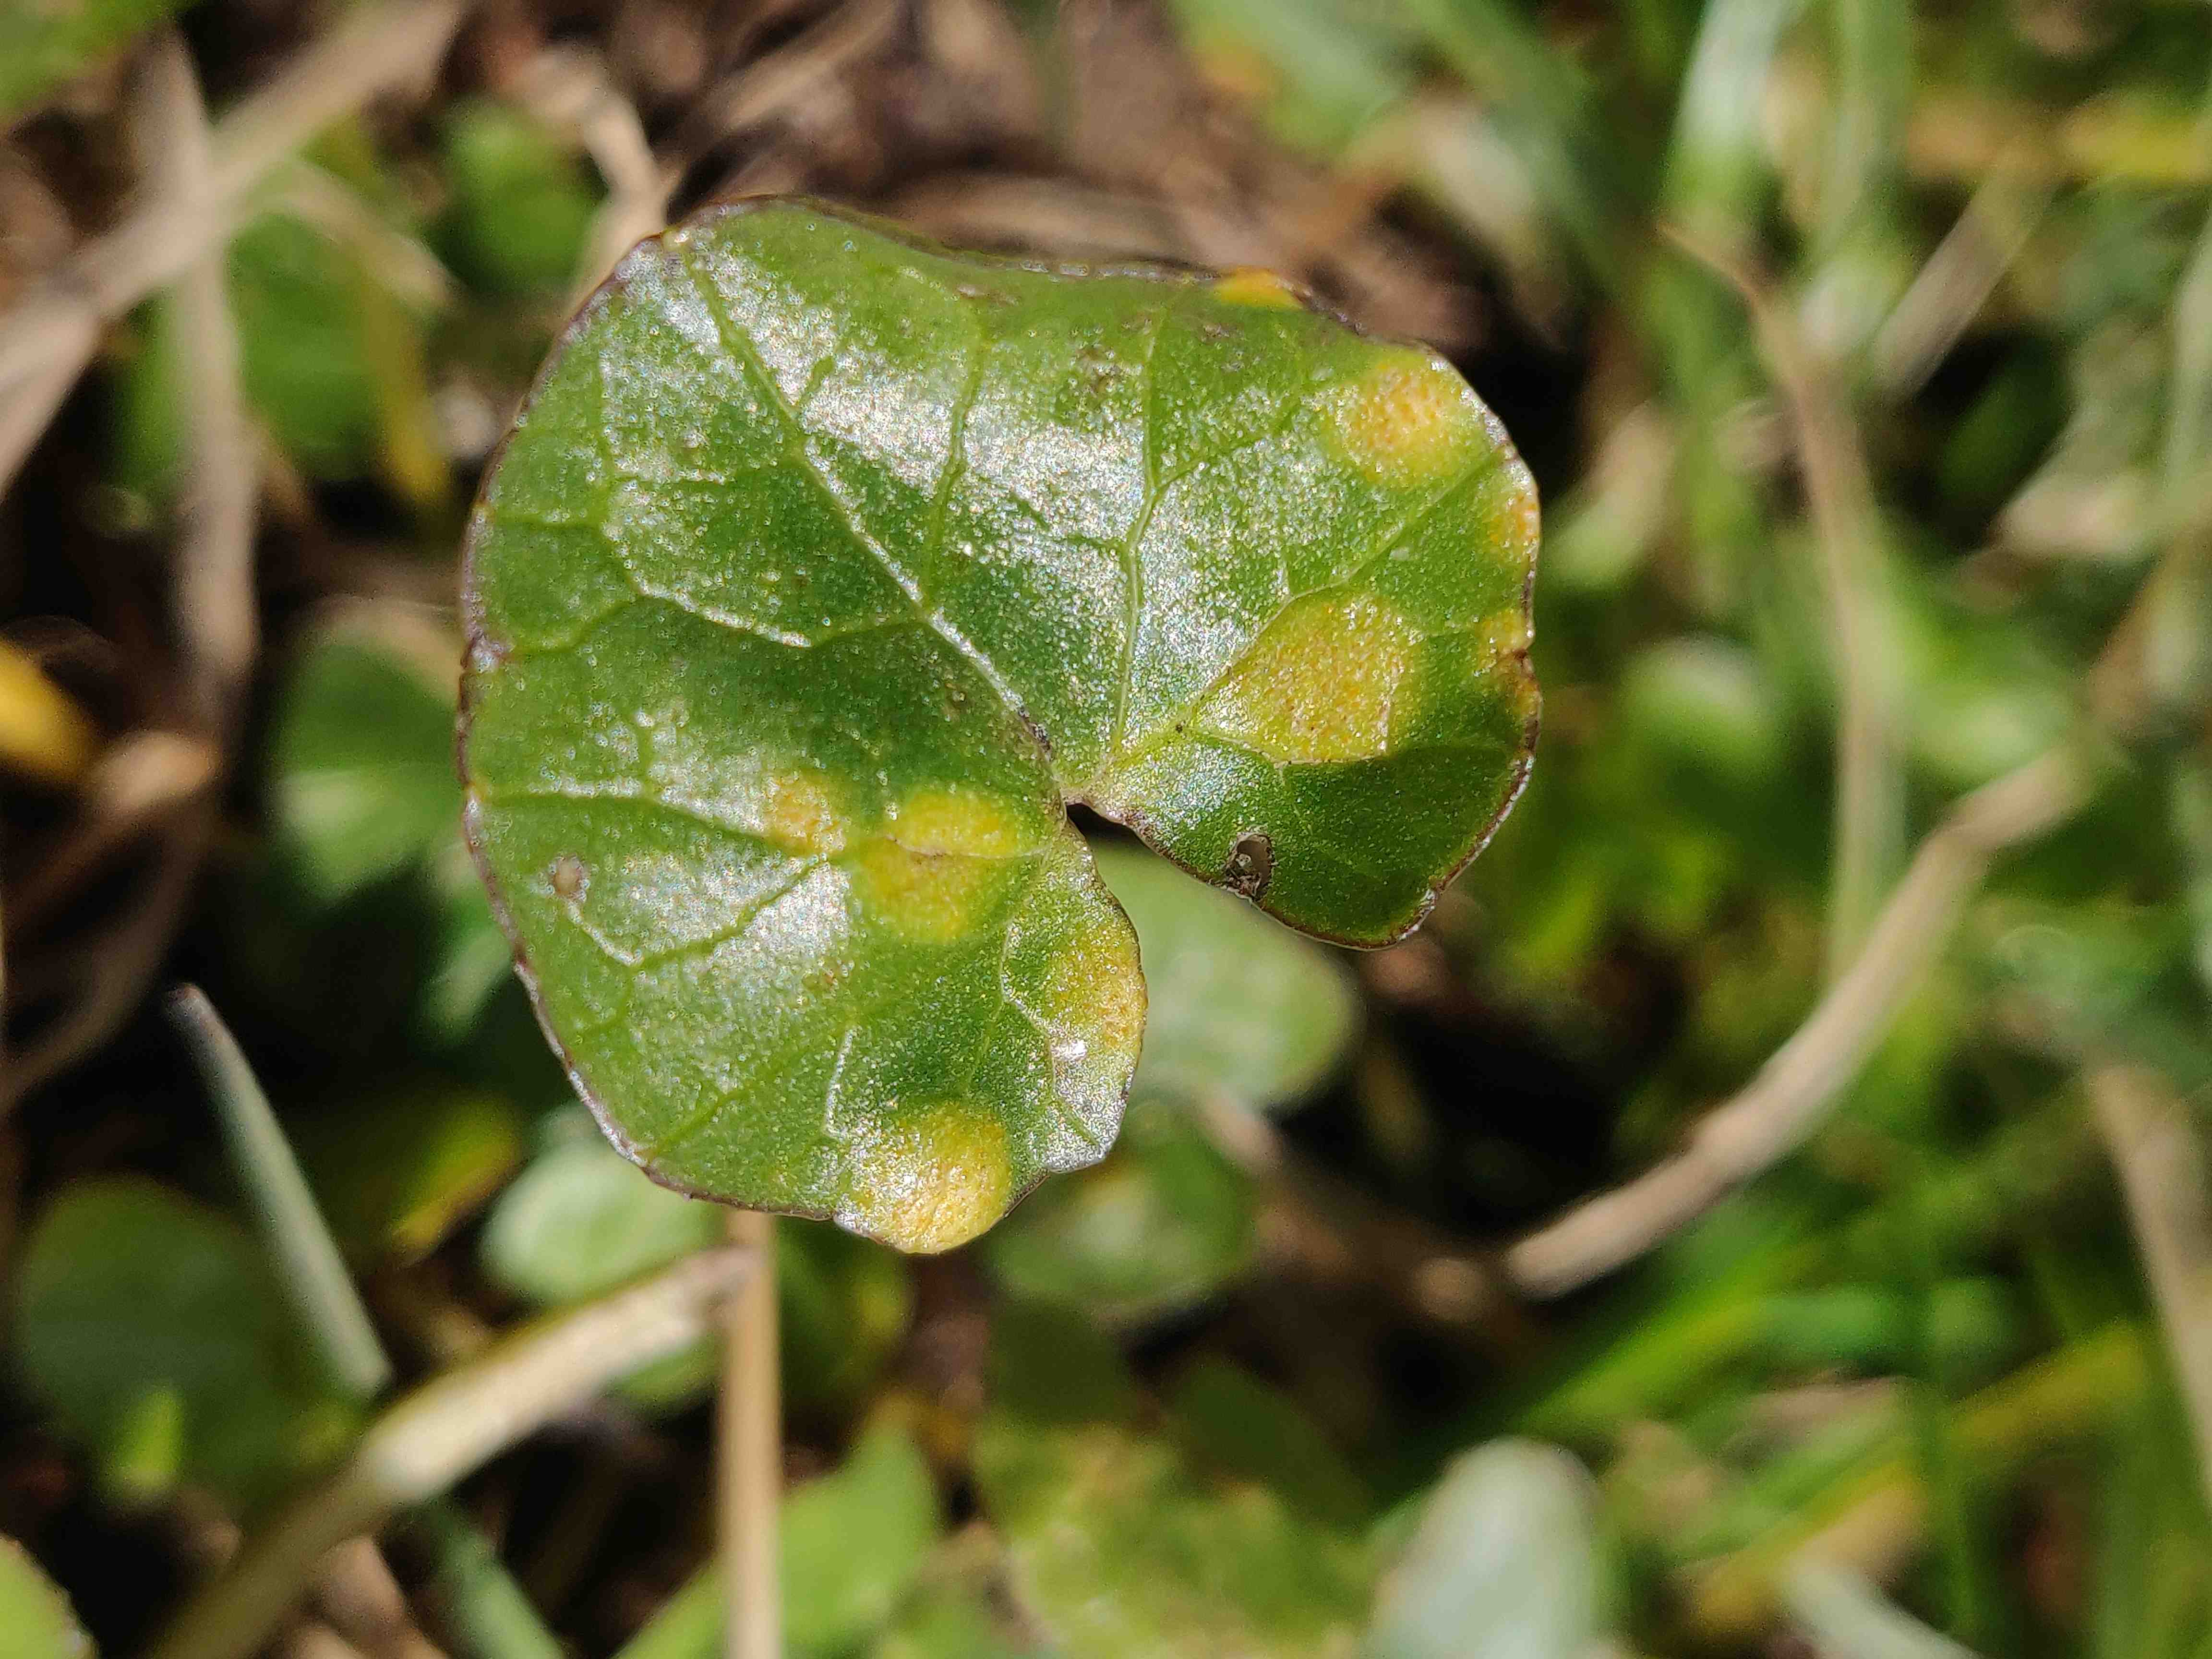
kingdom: Fungi
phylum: Basidiomycota
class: Pucciniomycetes
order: Pucciniales
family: Pucciniaceae
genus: Uromyces
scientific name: Uromyces dactylidis
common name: ranunkel-encellerust
